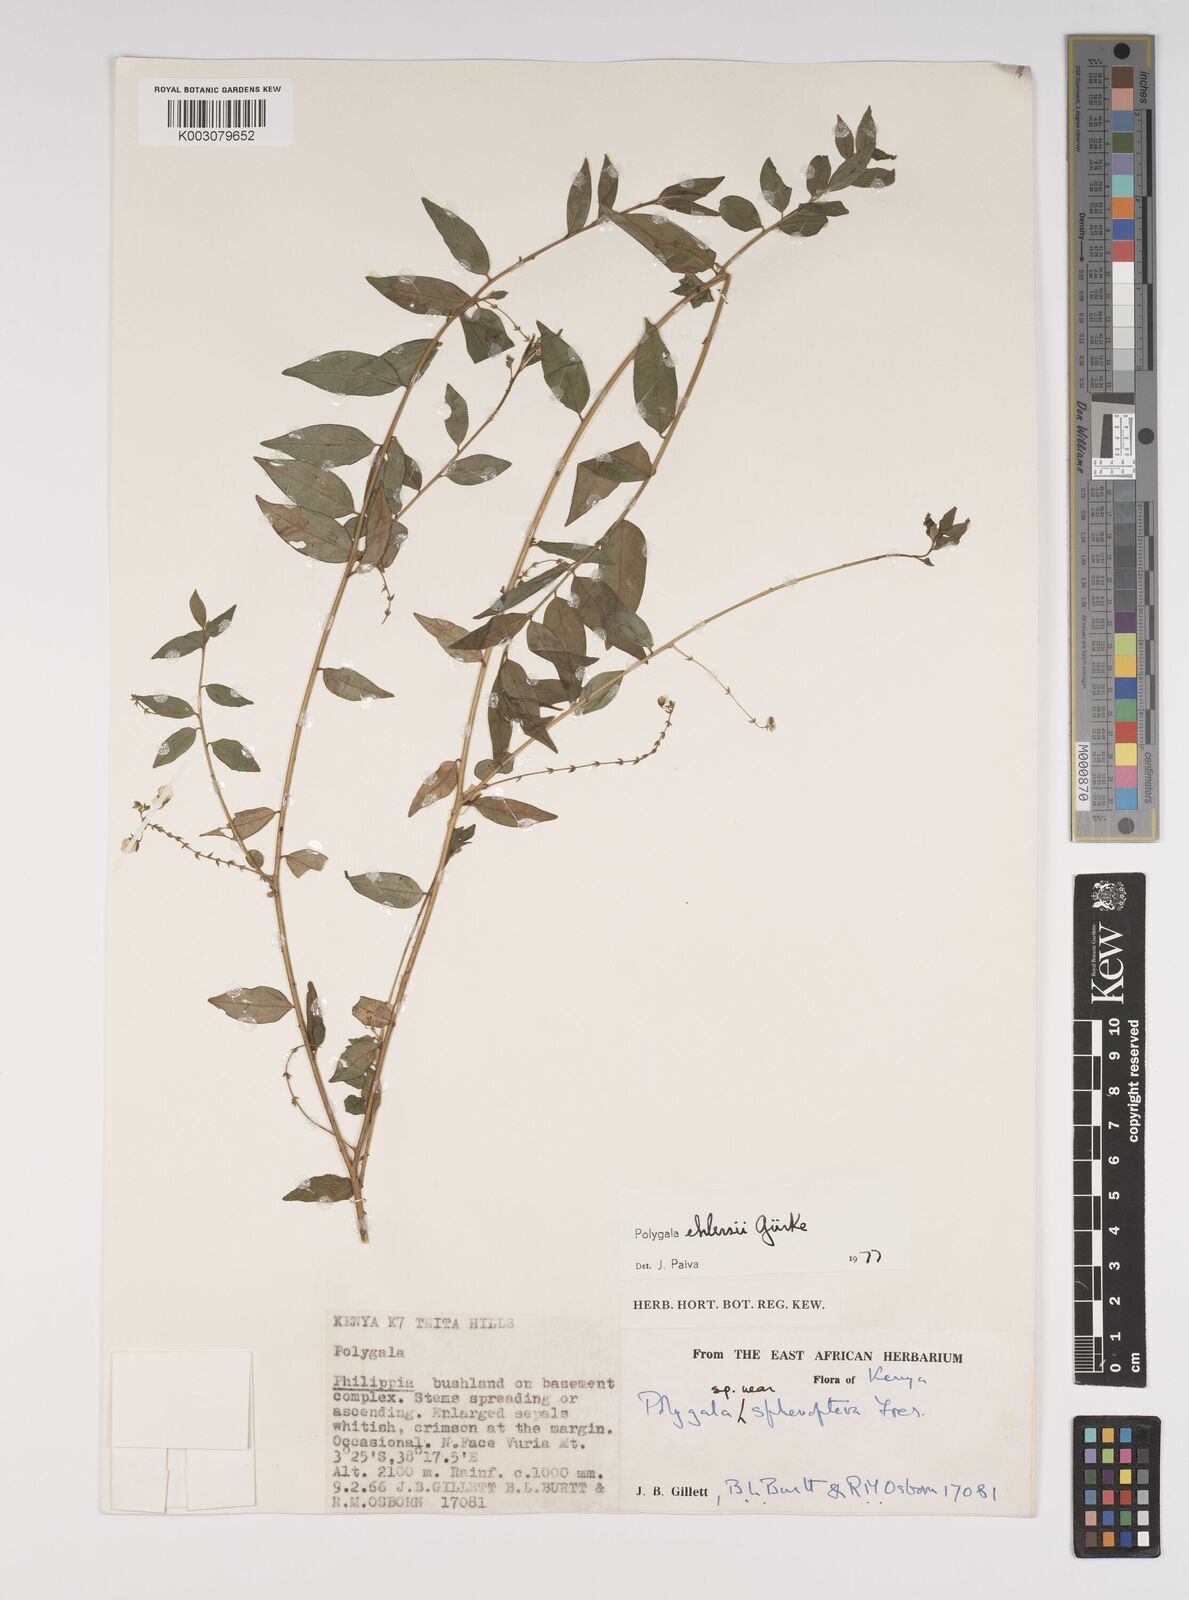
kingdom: Plantae
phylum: Tracheophyta
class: Magnoliopsida
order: Fabales
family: Polygalaceae
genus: Polygala
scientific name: Polygala ehlersii
